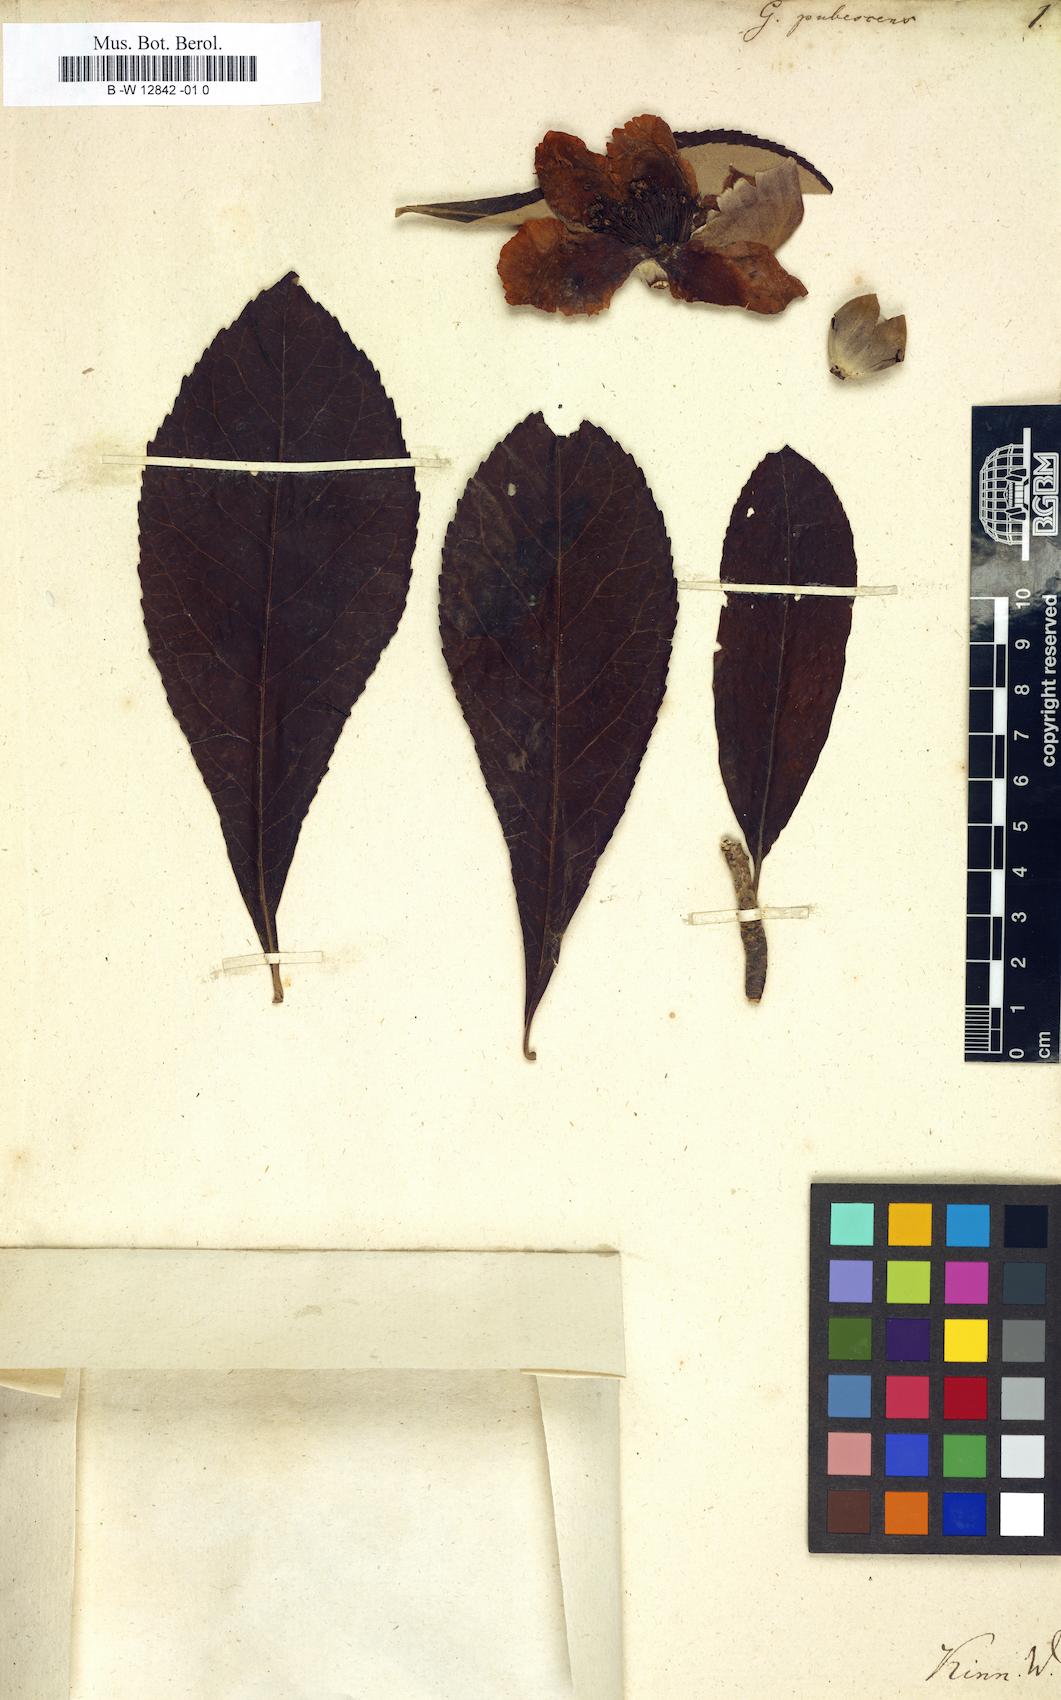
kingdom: Plantae
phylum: Tracheophyta
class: Magnoliopsida
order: Ericales
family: Theaceae
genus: Gordonia
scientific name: Gordonia pubescens
